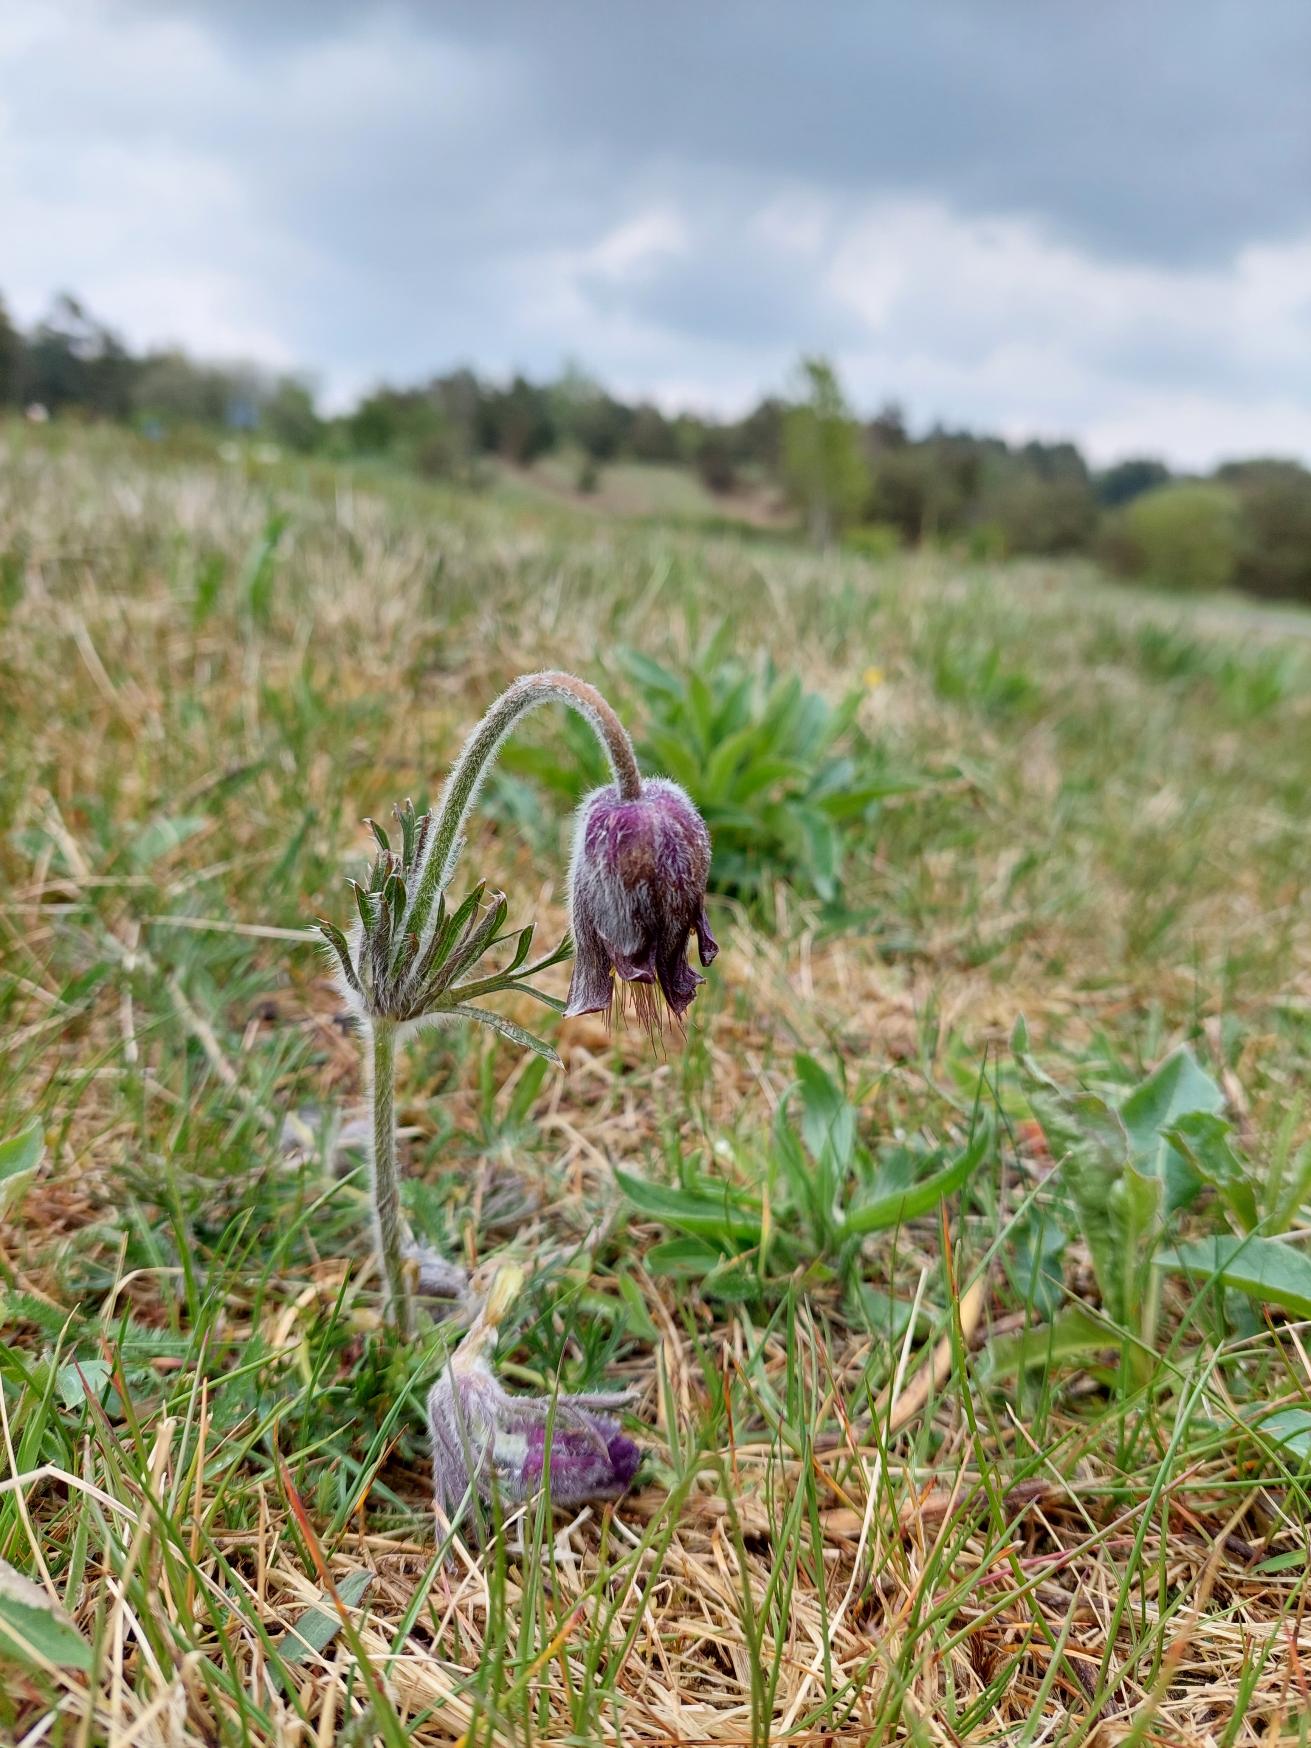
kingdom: Plantae
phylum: Tracheophyta
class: Magnoliopsida
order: Ranunculales
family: Ranunculaceae
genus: Pulsatilla
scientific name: Pulsatilla pratensis
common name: Nikkende kobjælde
